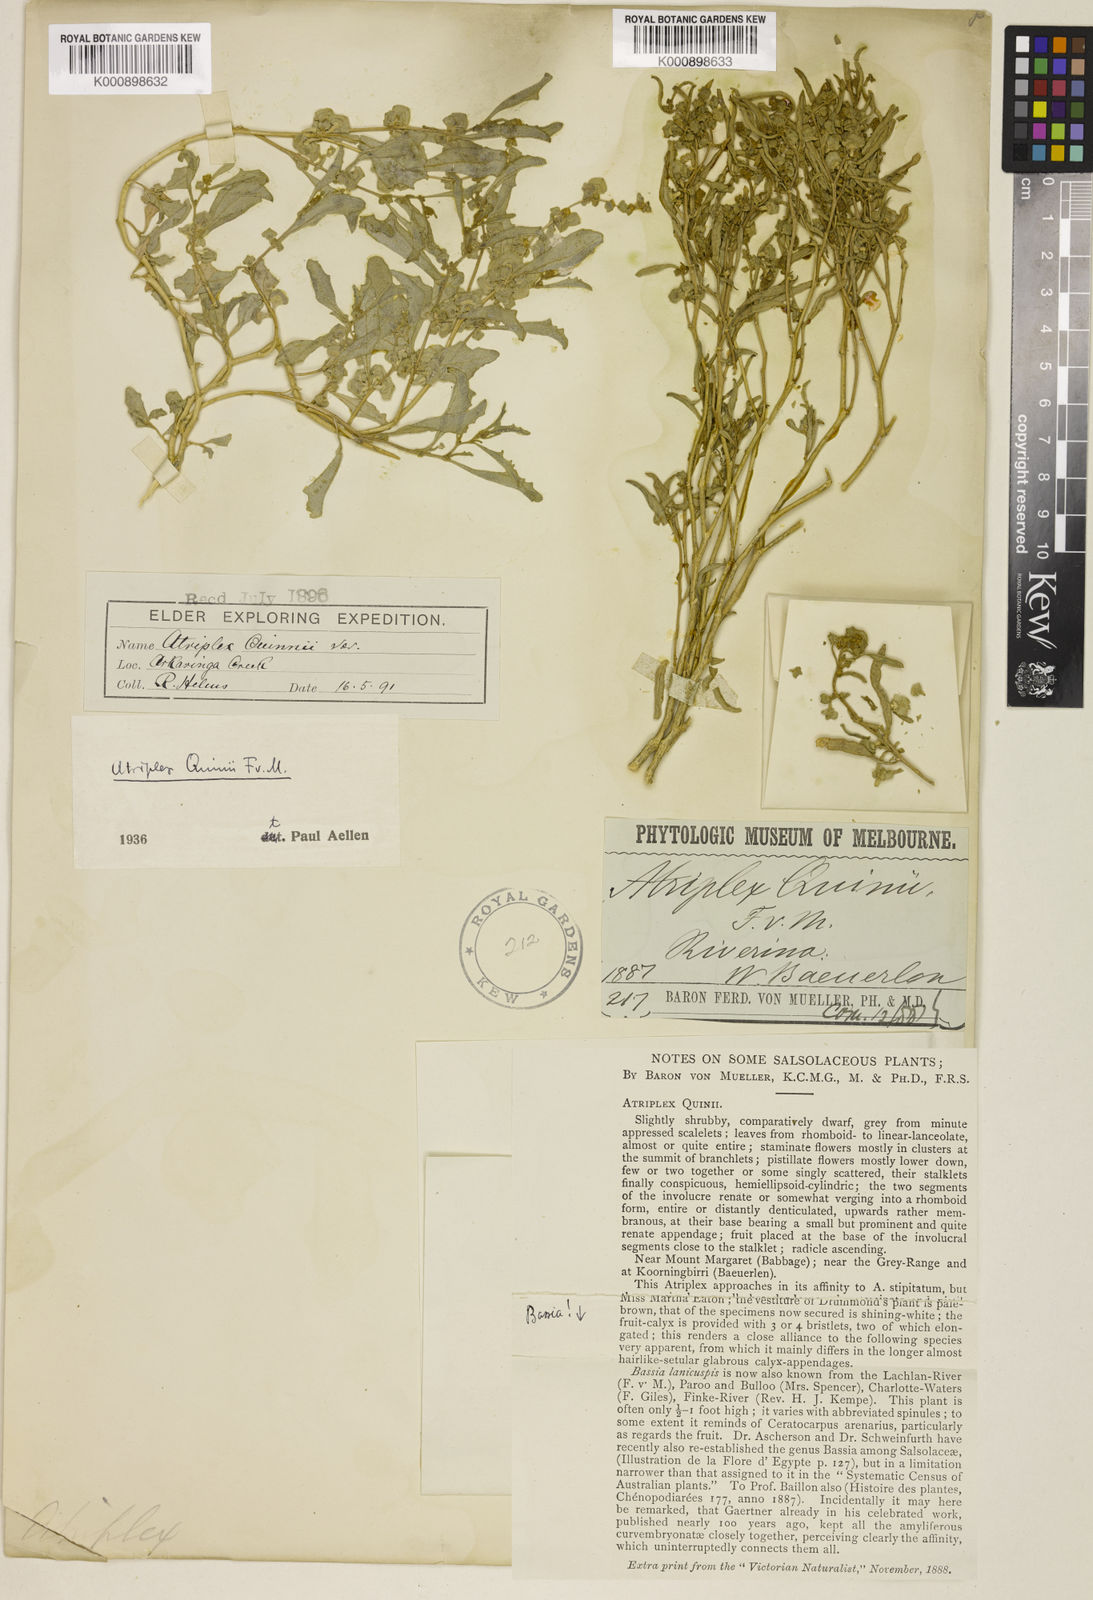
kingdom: Plantae
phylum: Tracheophyta
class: Magnoliopsida
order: Caryophyllales
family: Amaranthaceae
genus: Atriplex
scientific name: Atriplex quinii
